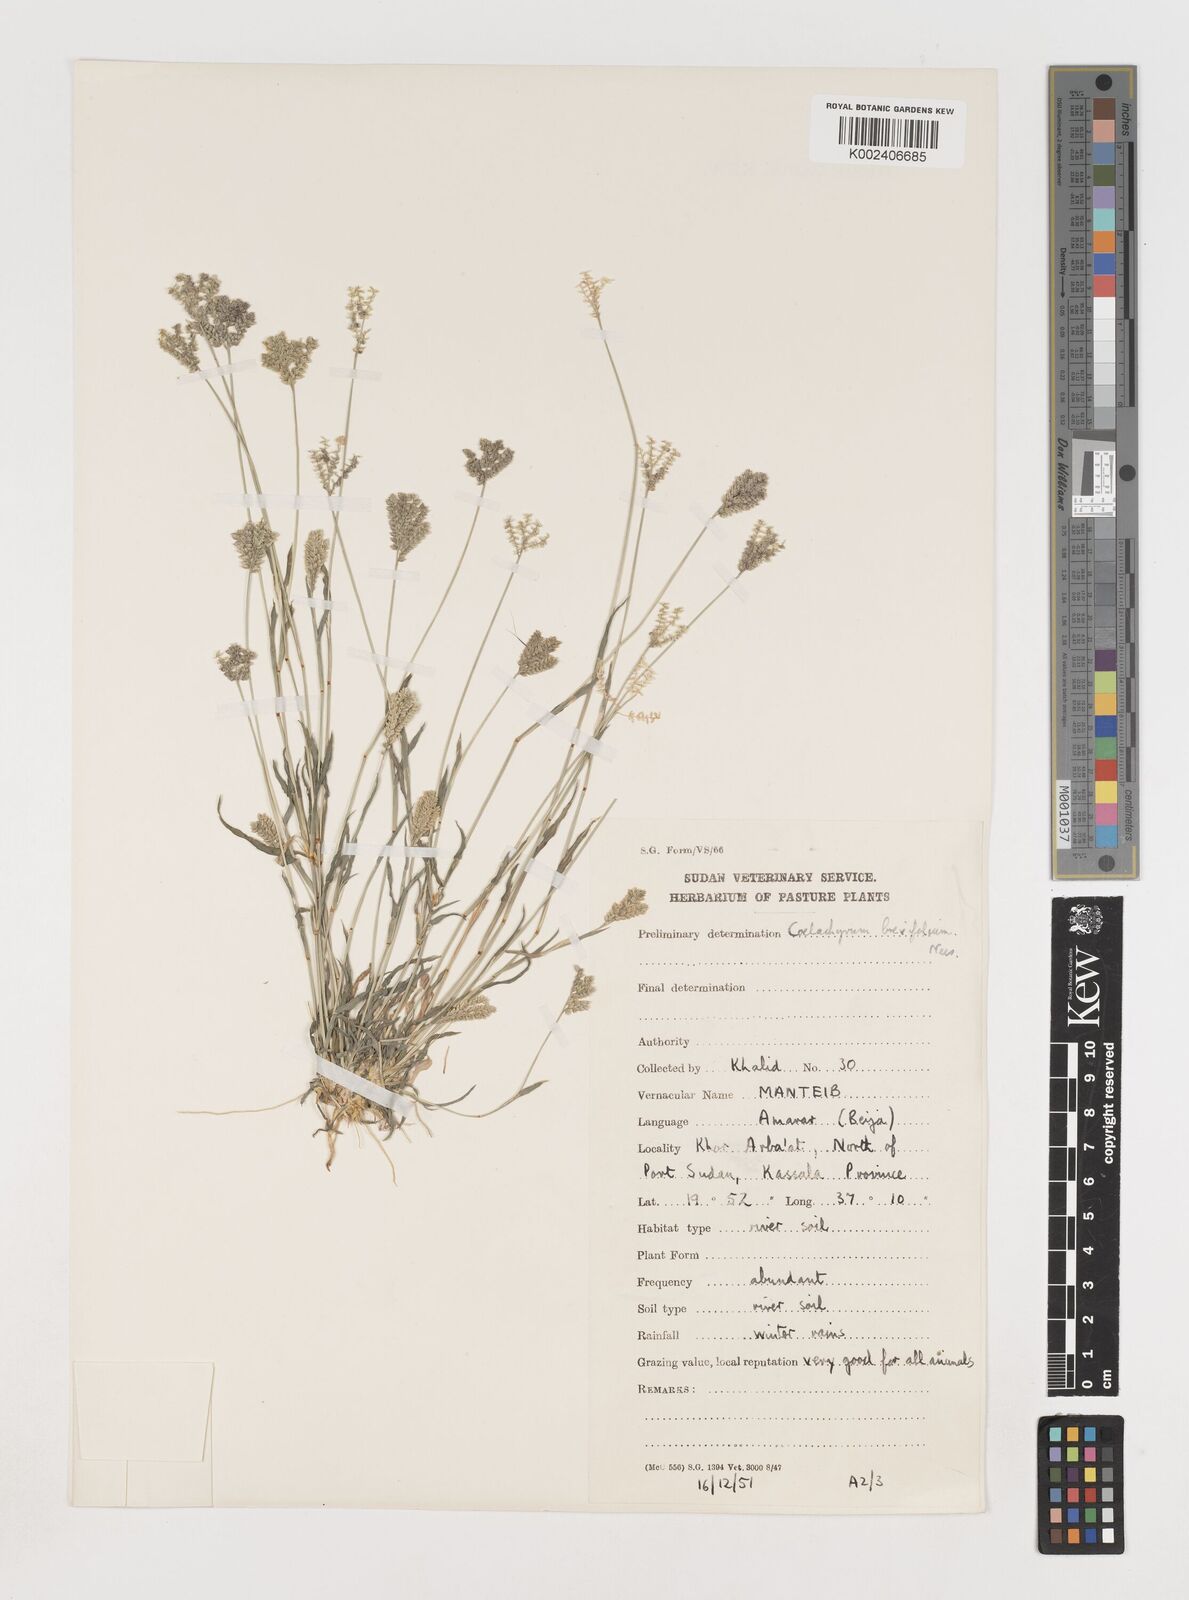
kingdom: Plantae
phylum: Tracheophyta
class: Liliopsida
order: Poales
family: Poaceae
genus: Coelachyrum
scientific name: Coelachyrum brevifolium
